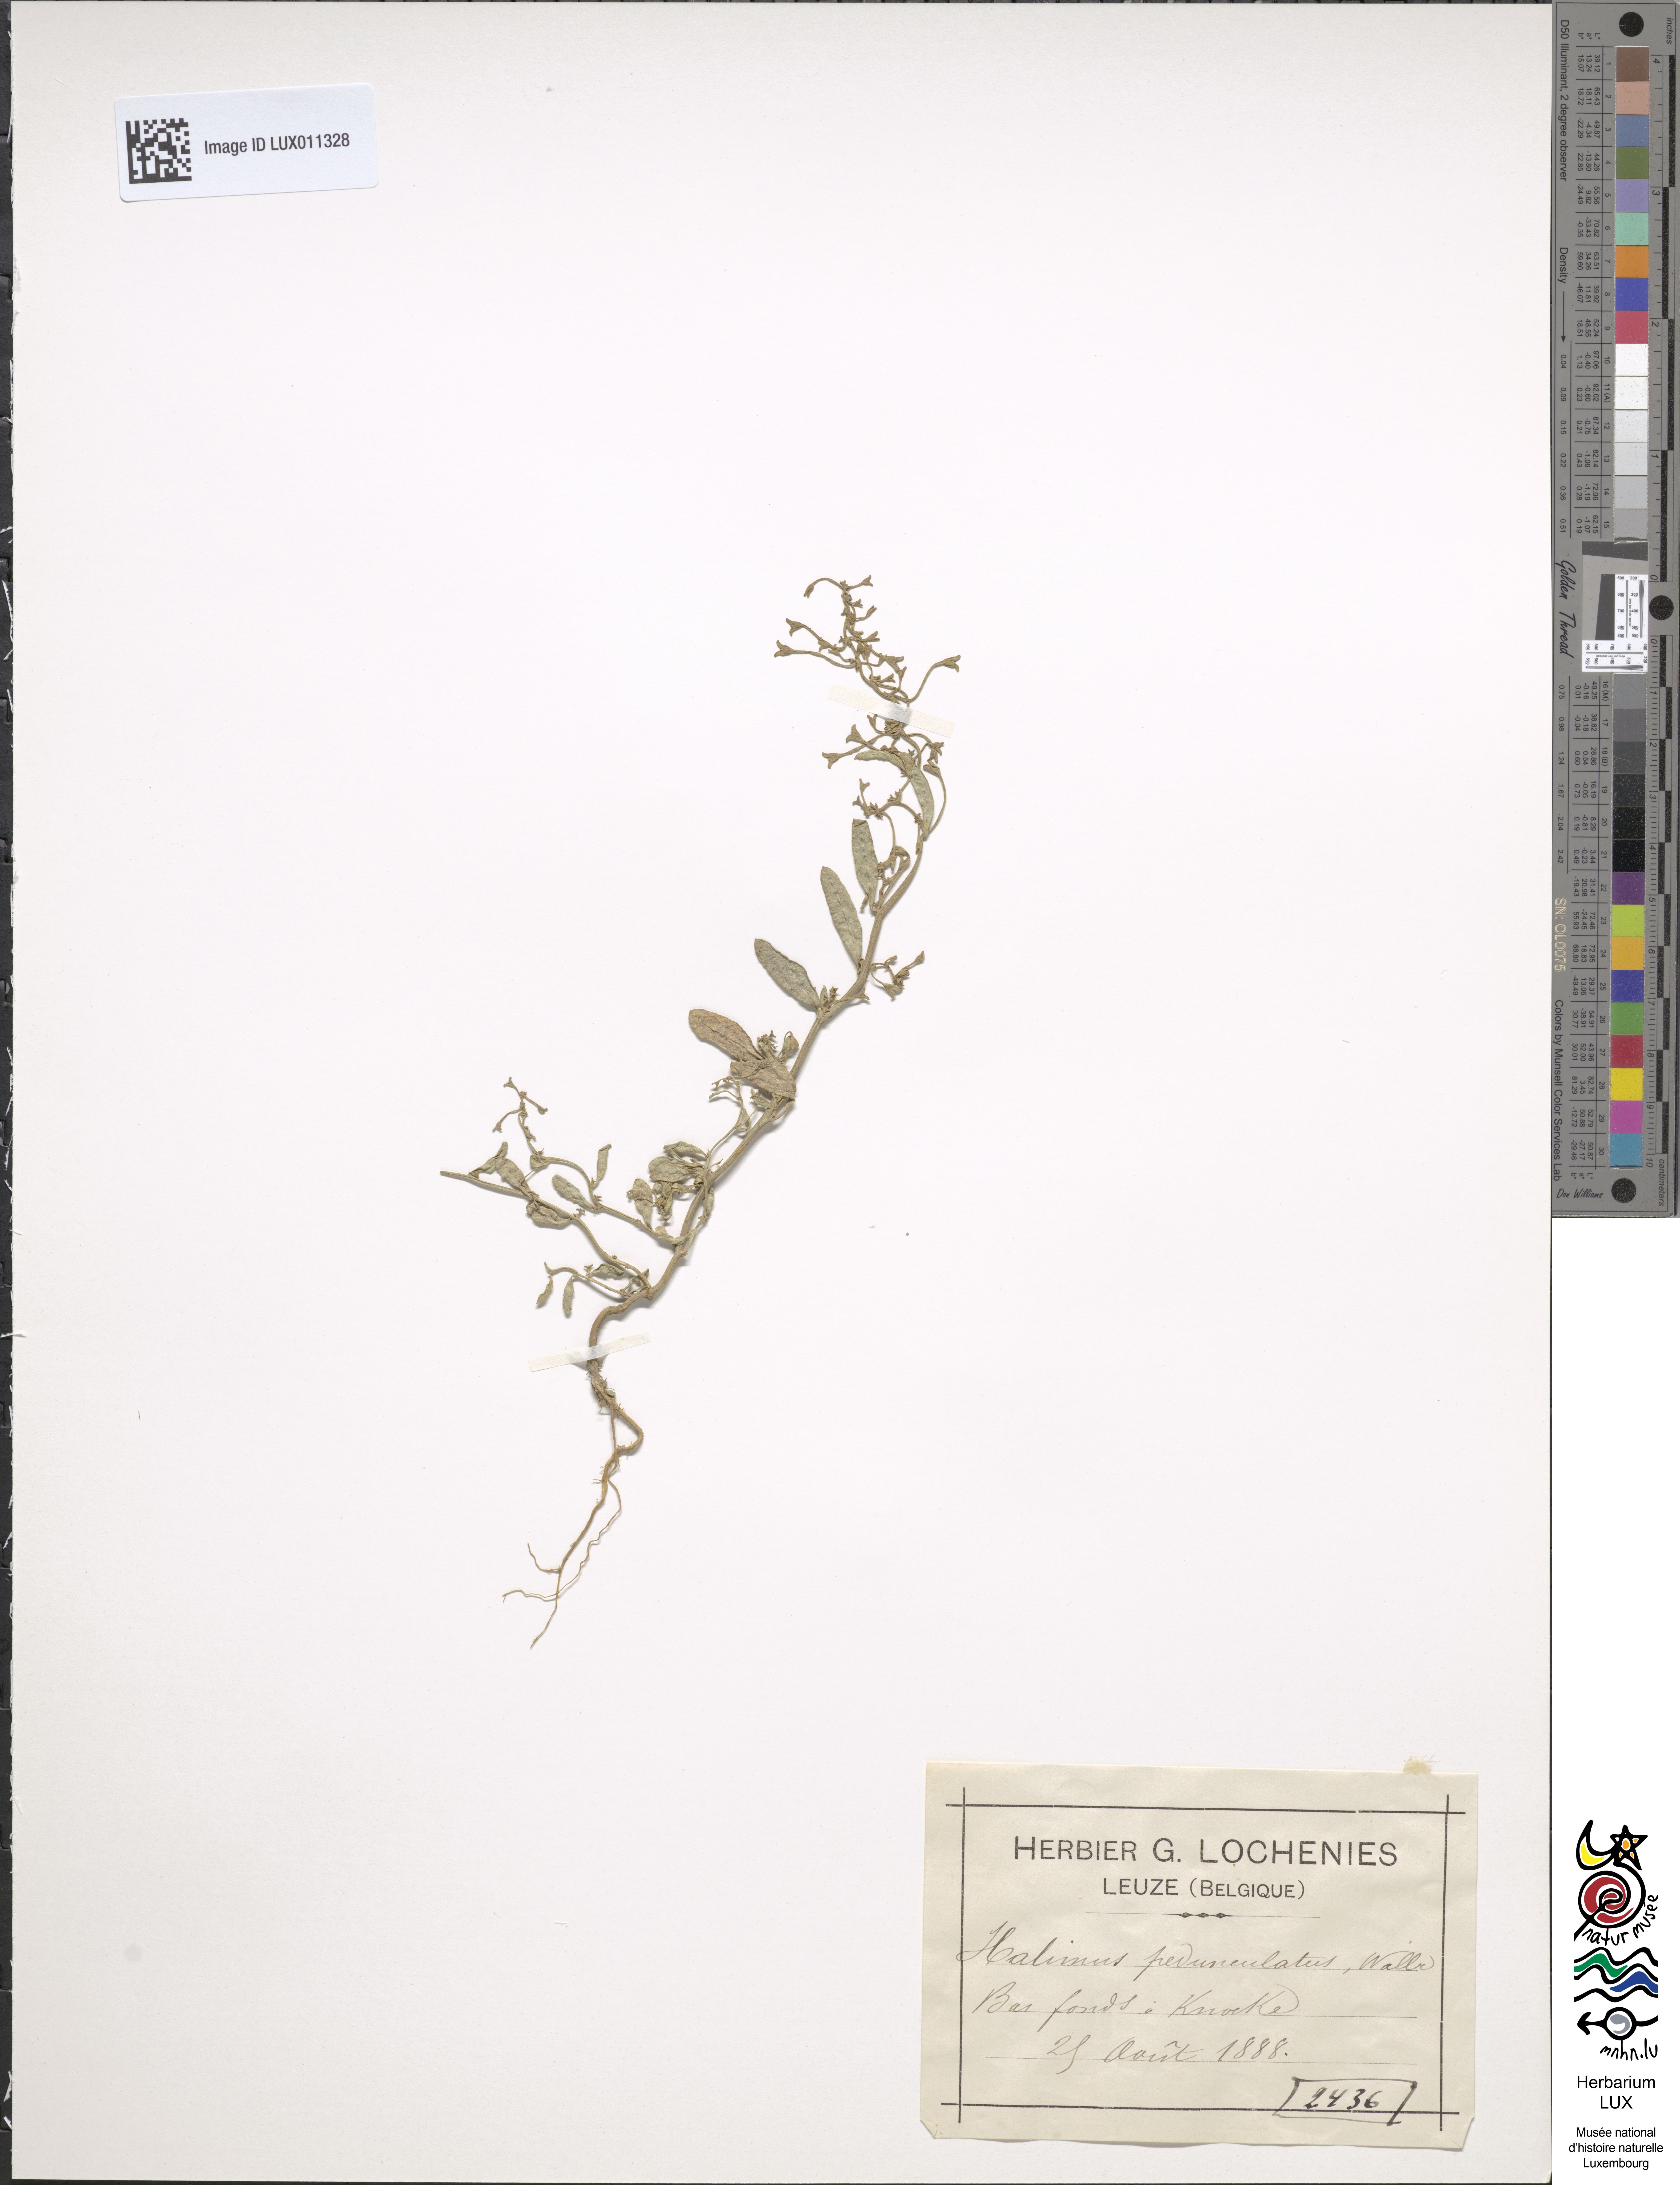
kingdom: Plantae
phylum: Tracheophyta
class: Magnoliopsida
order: Caryophyllales
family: Amaranthaceae
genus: Halimione
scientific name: Halimione pedunculata
